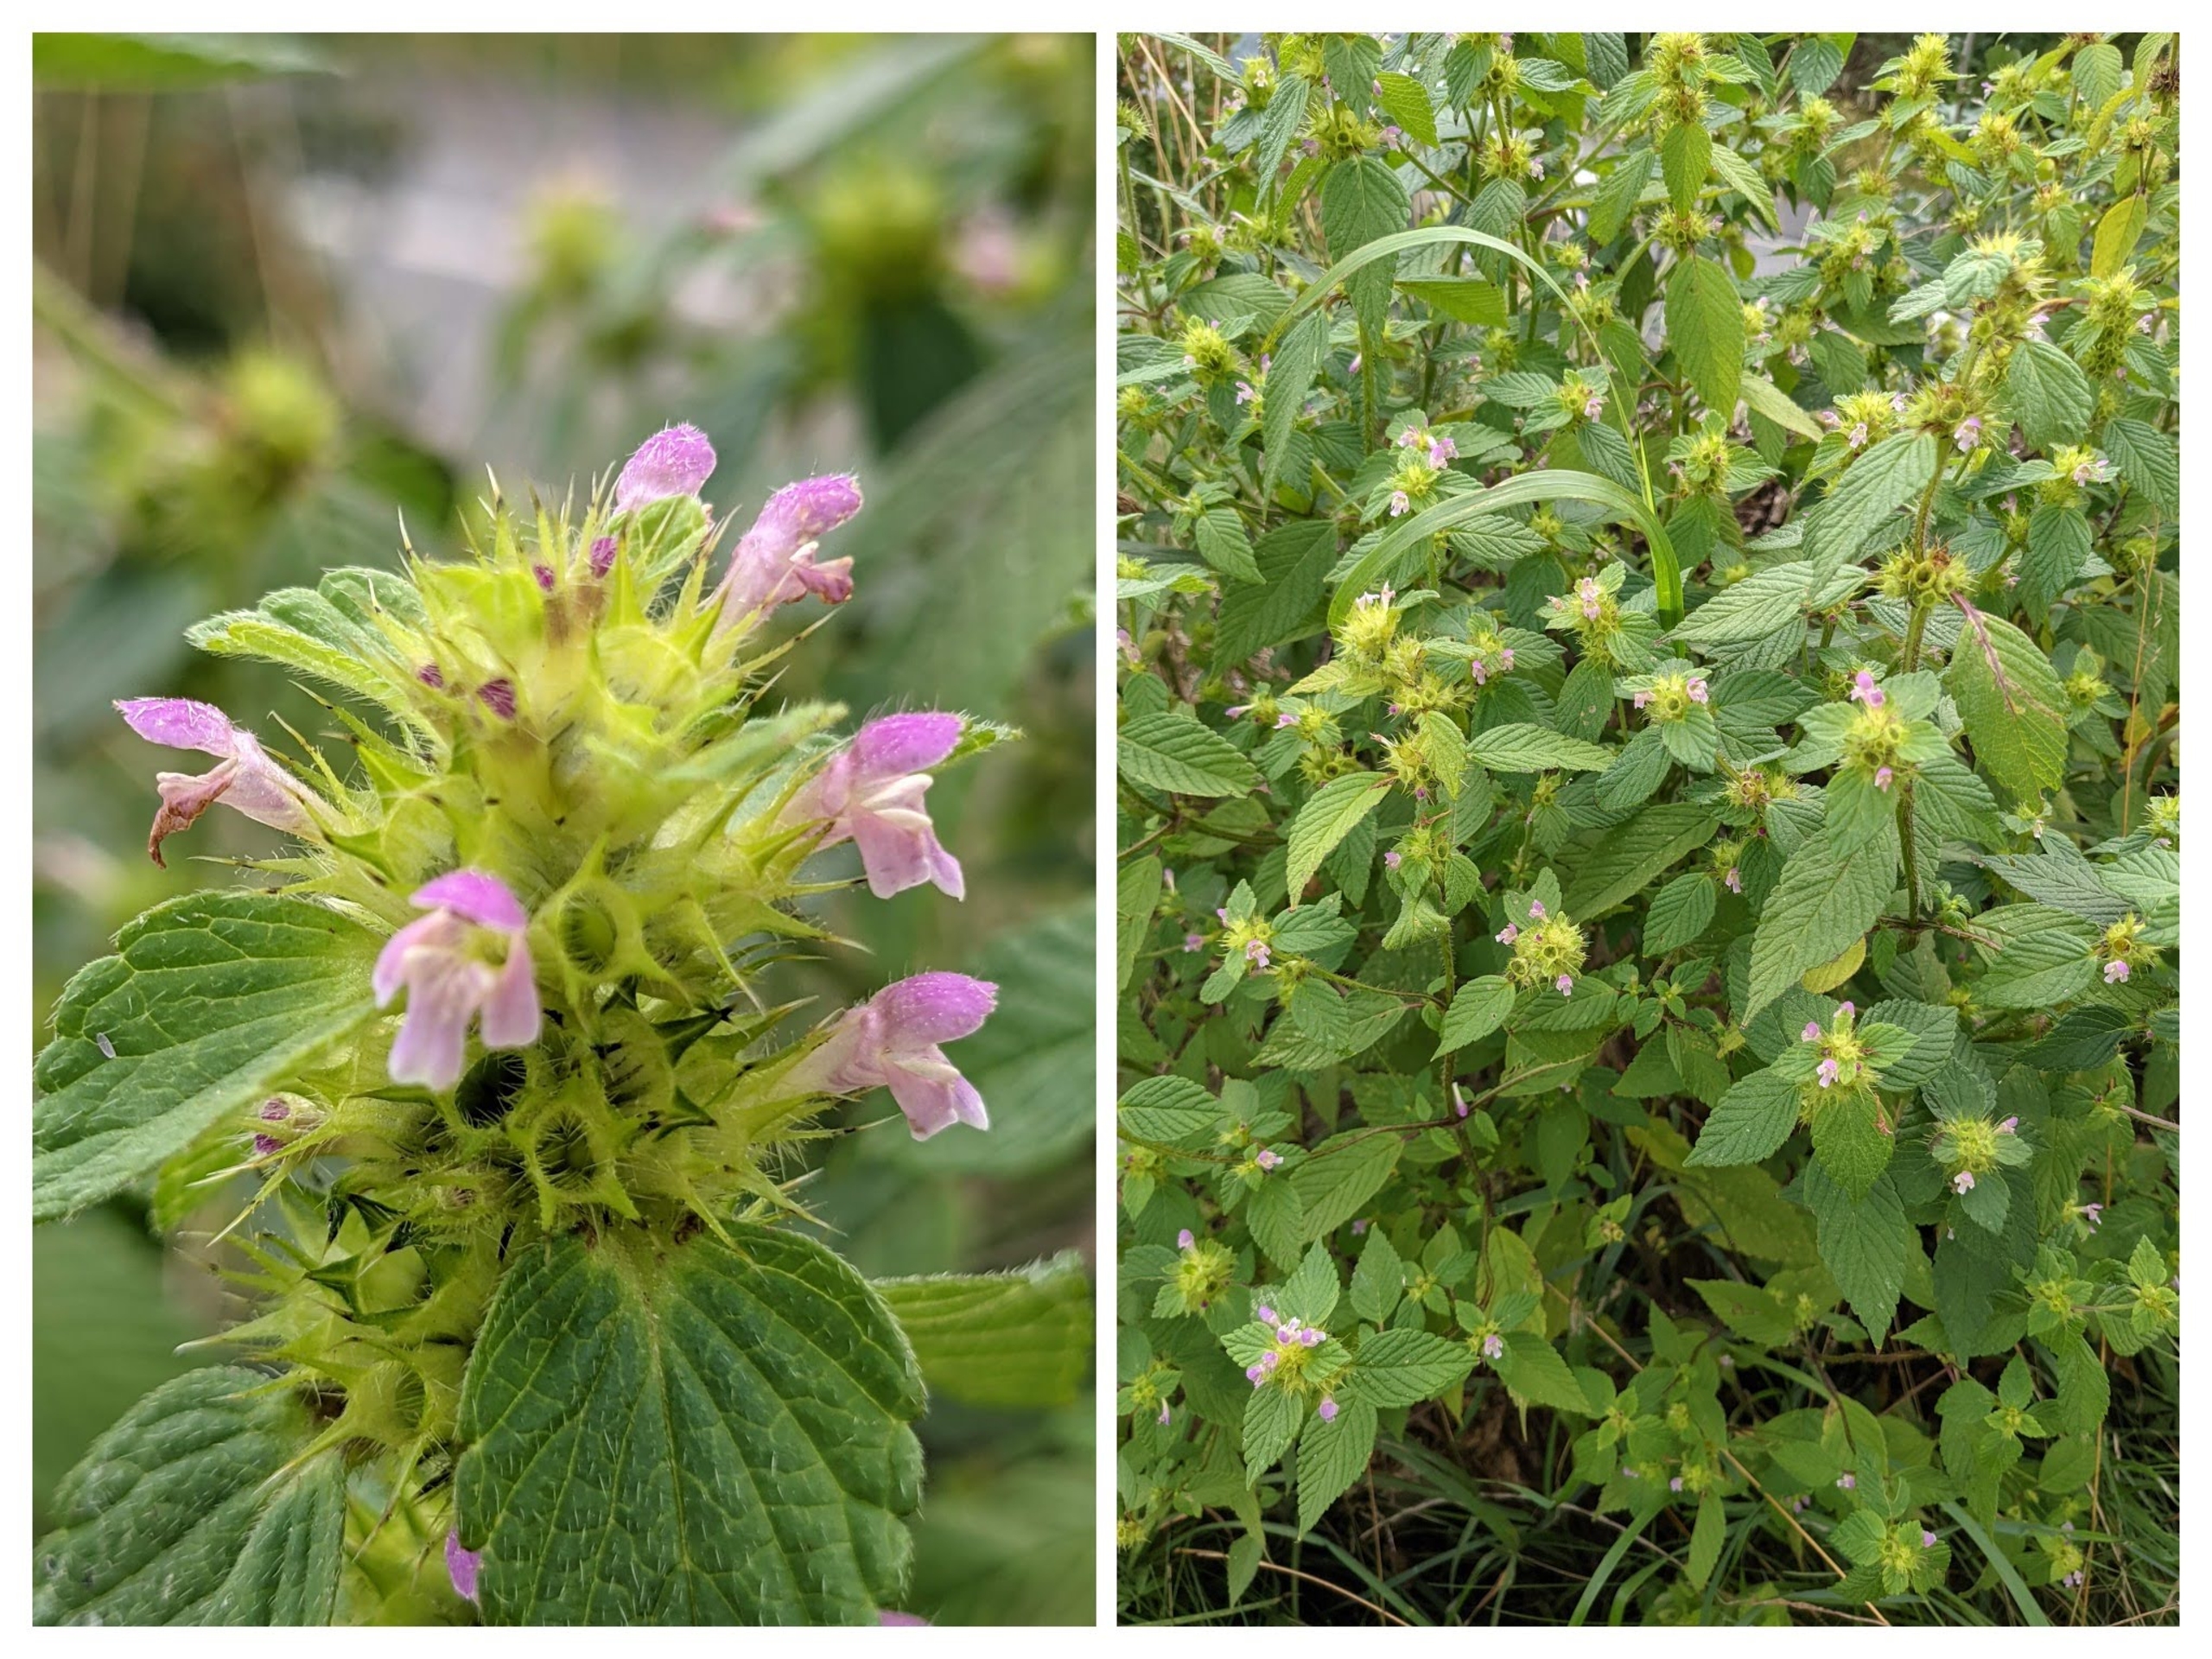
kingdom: Plantae
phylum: Tracheophyta
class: Magnoliopsida
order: Lamiales
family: Lamiaceae
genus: Galeopsis
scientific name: Galeopsis bifida
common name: Skov-hanekro
